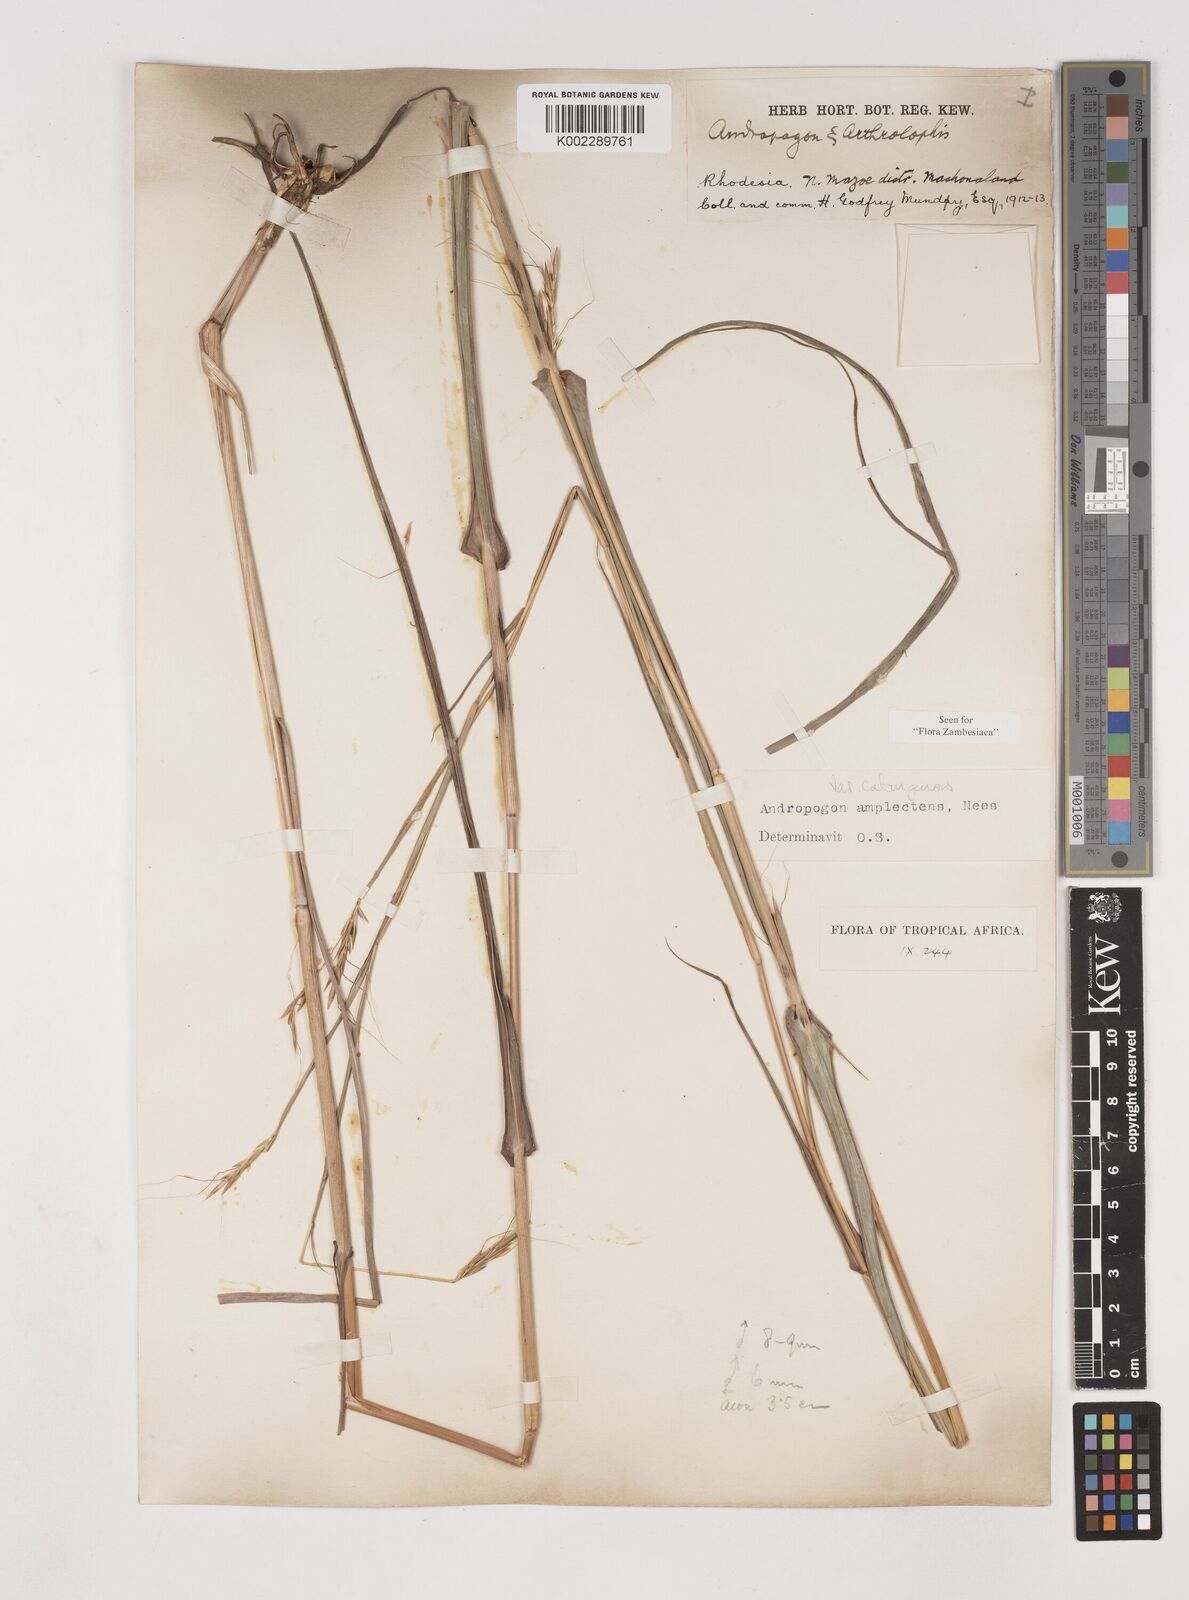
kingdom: Plantae
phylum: Tracheophyta
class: Liliopsida
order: Poales
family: Poaceae
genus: Diheteropogon
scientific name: Diheteropogon amplectens
